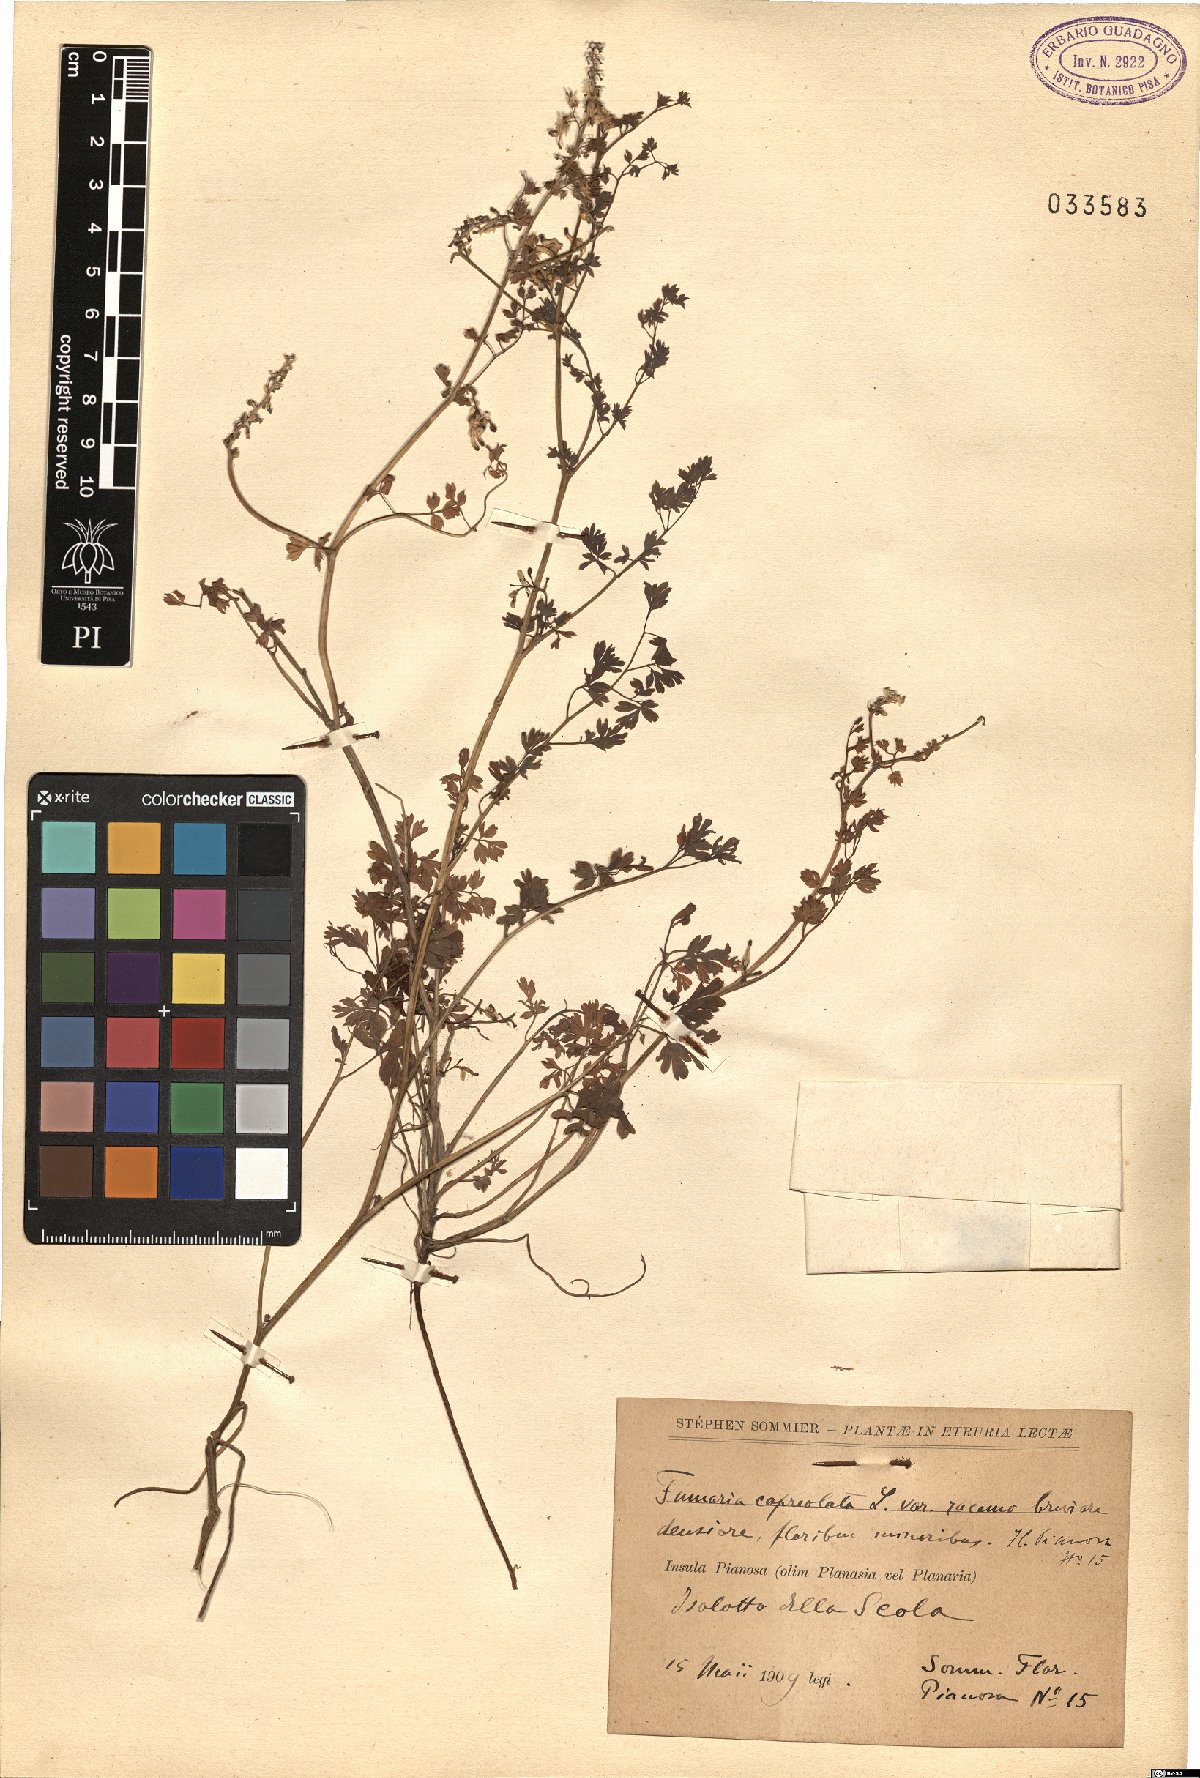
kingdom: Plantae
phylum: Tracheophyta
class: Magnoliopsida
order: Ranunculales
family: Papaveraceae
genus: Fumaria
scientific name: Fumaria capreolata
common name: White ramping-fumitory
